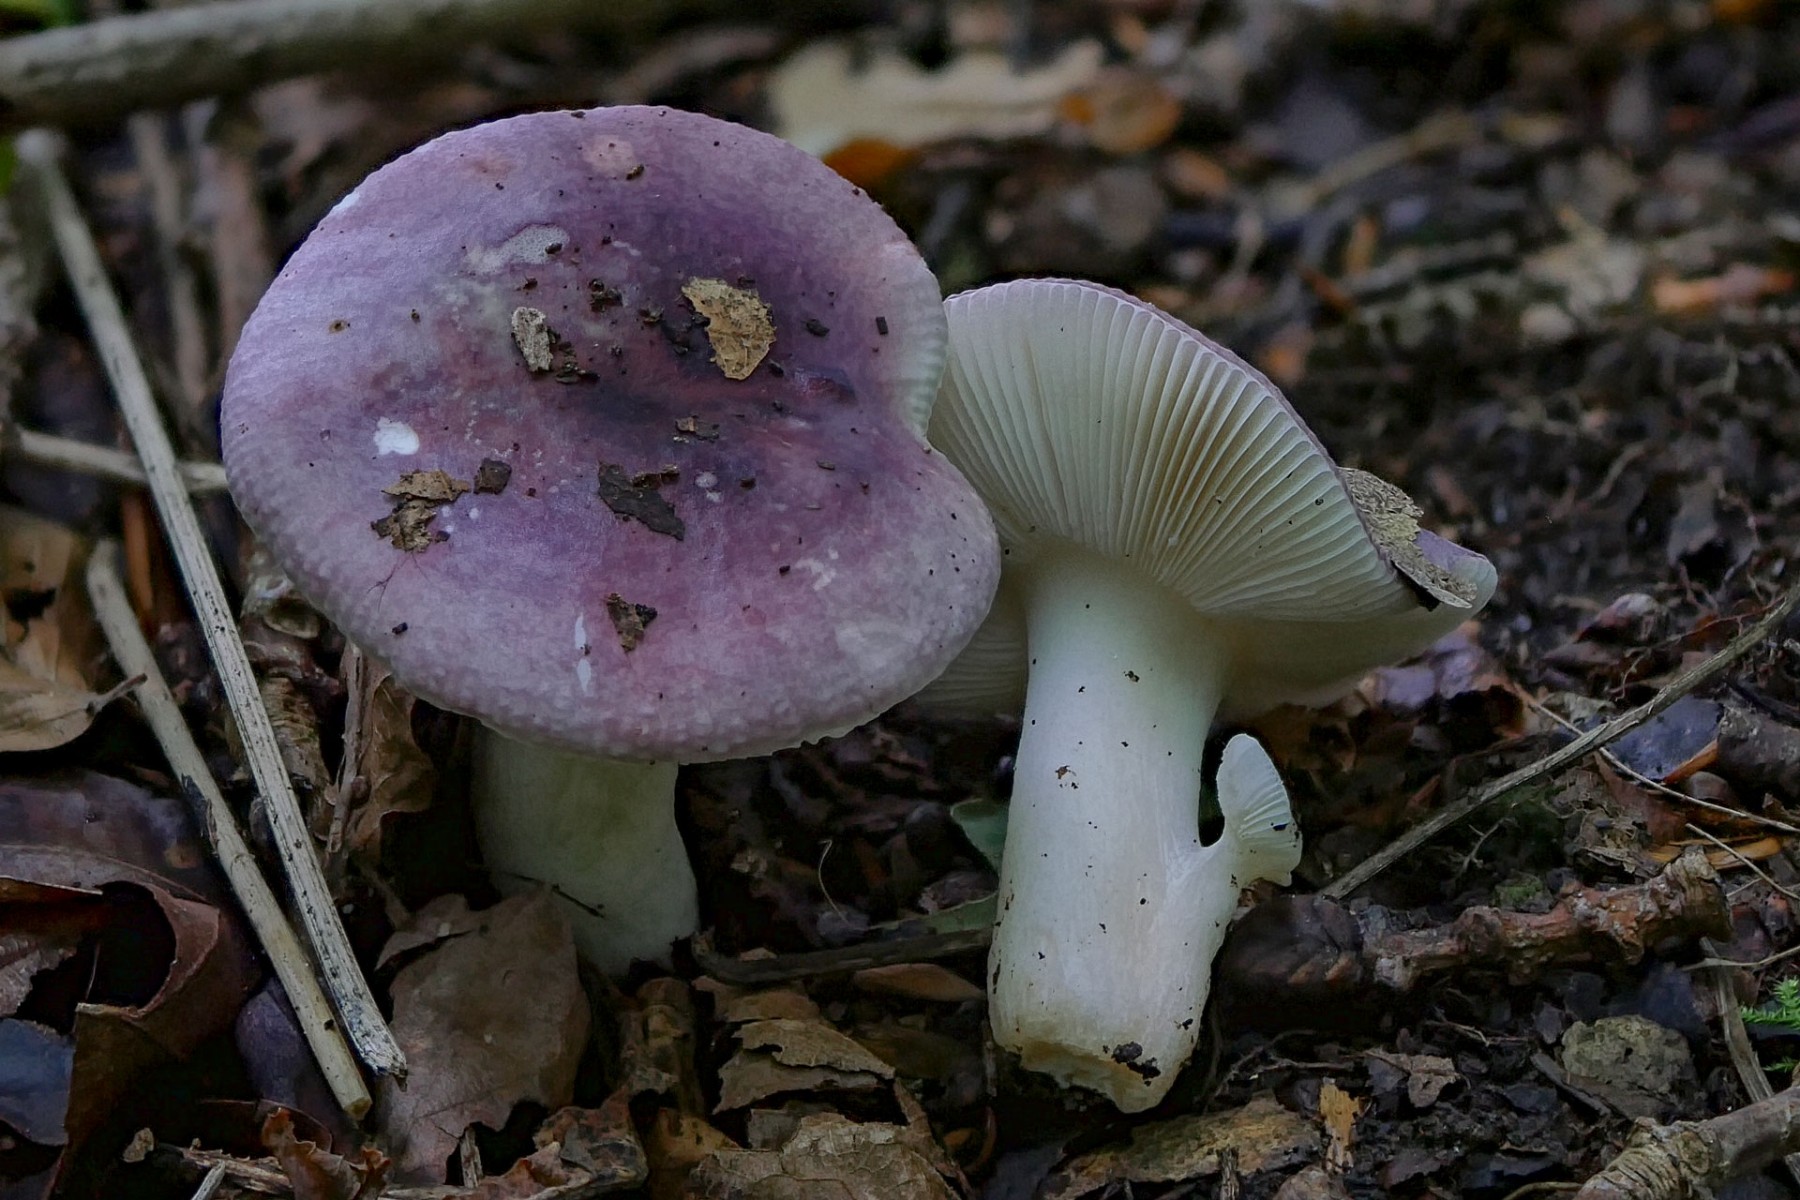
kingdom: Fungi
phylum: Basidiomycota
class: Agaricomycetes
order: Russulales
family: Russulaceae
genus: Russula
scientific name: Russula fragilis
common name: savbladet skørhat
